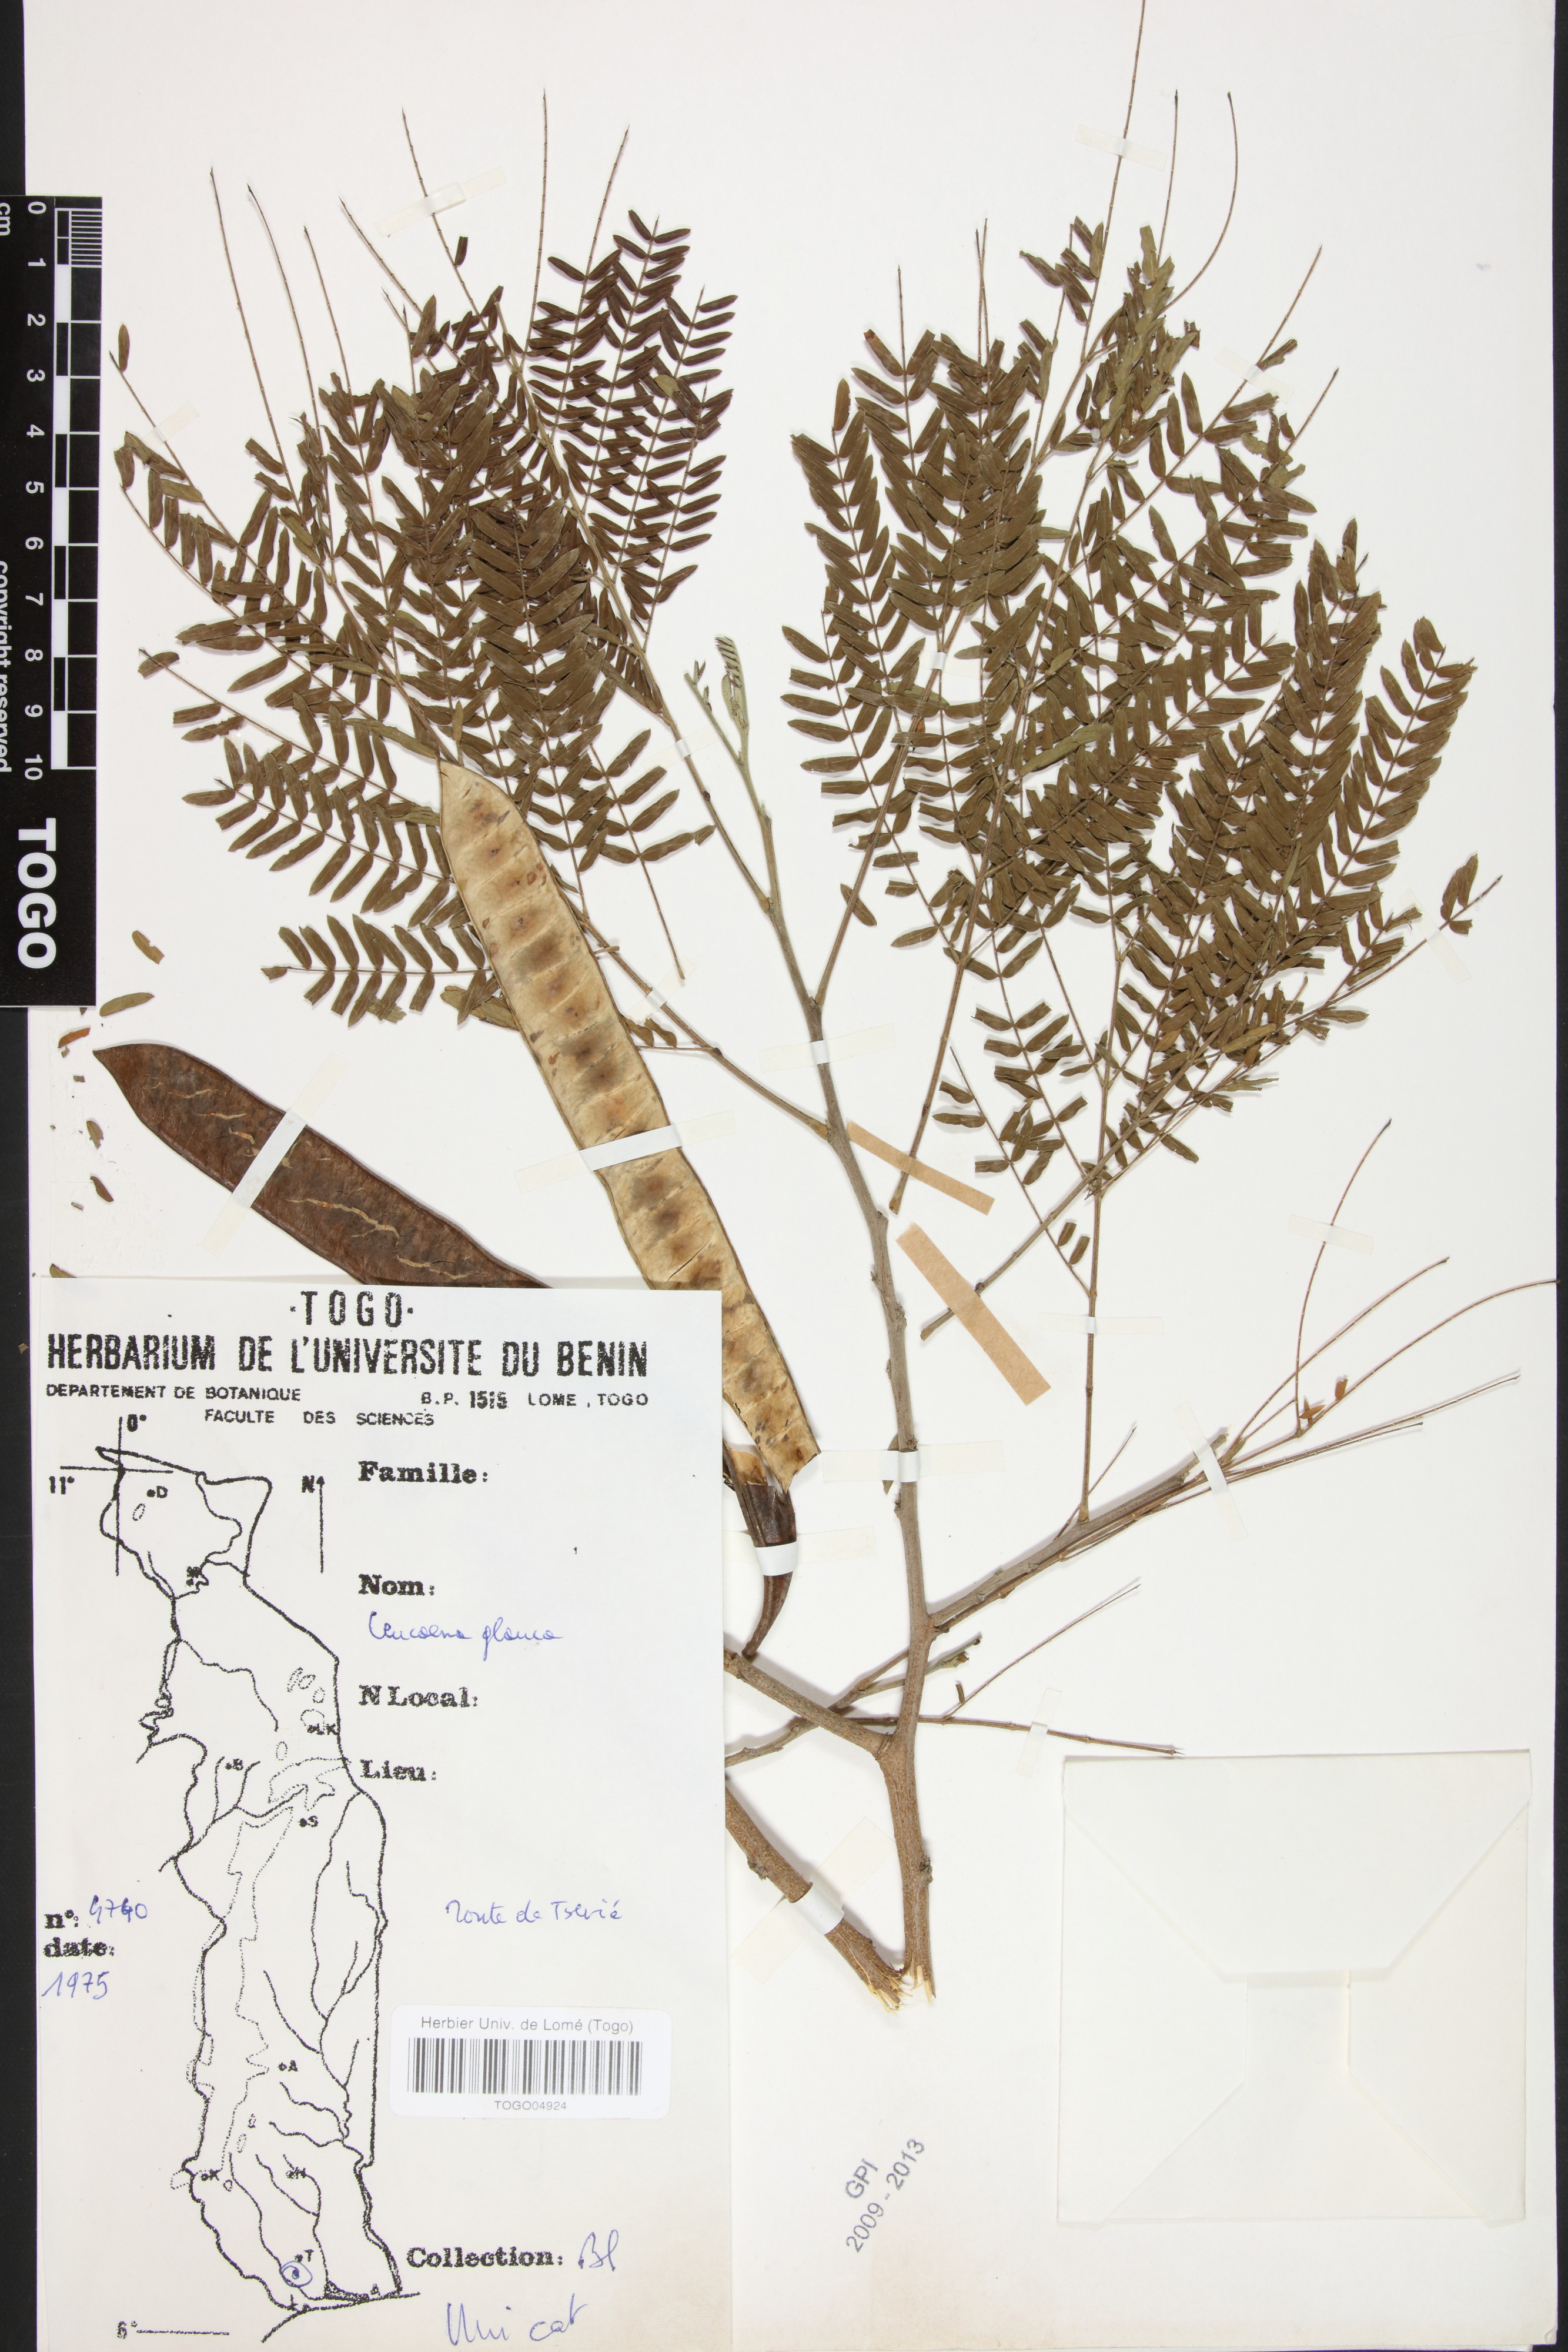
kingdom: Plantae
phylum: Tracheophyta
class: Magnoliopsida
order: Fabales
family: Fabaceae
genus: Acaciella
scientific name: Acaciella glauca
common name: Redwood
